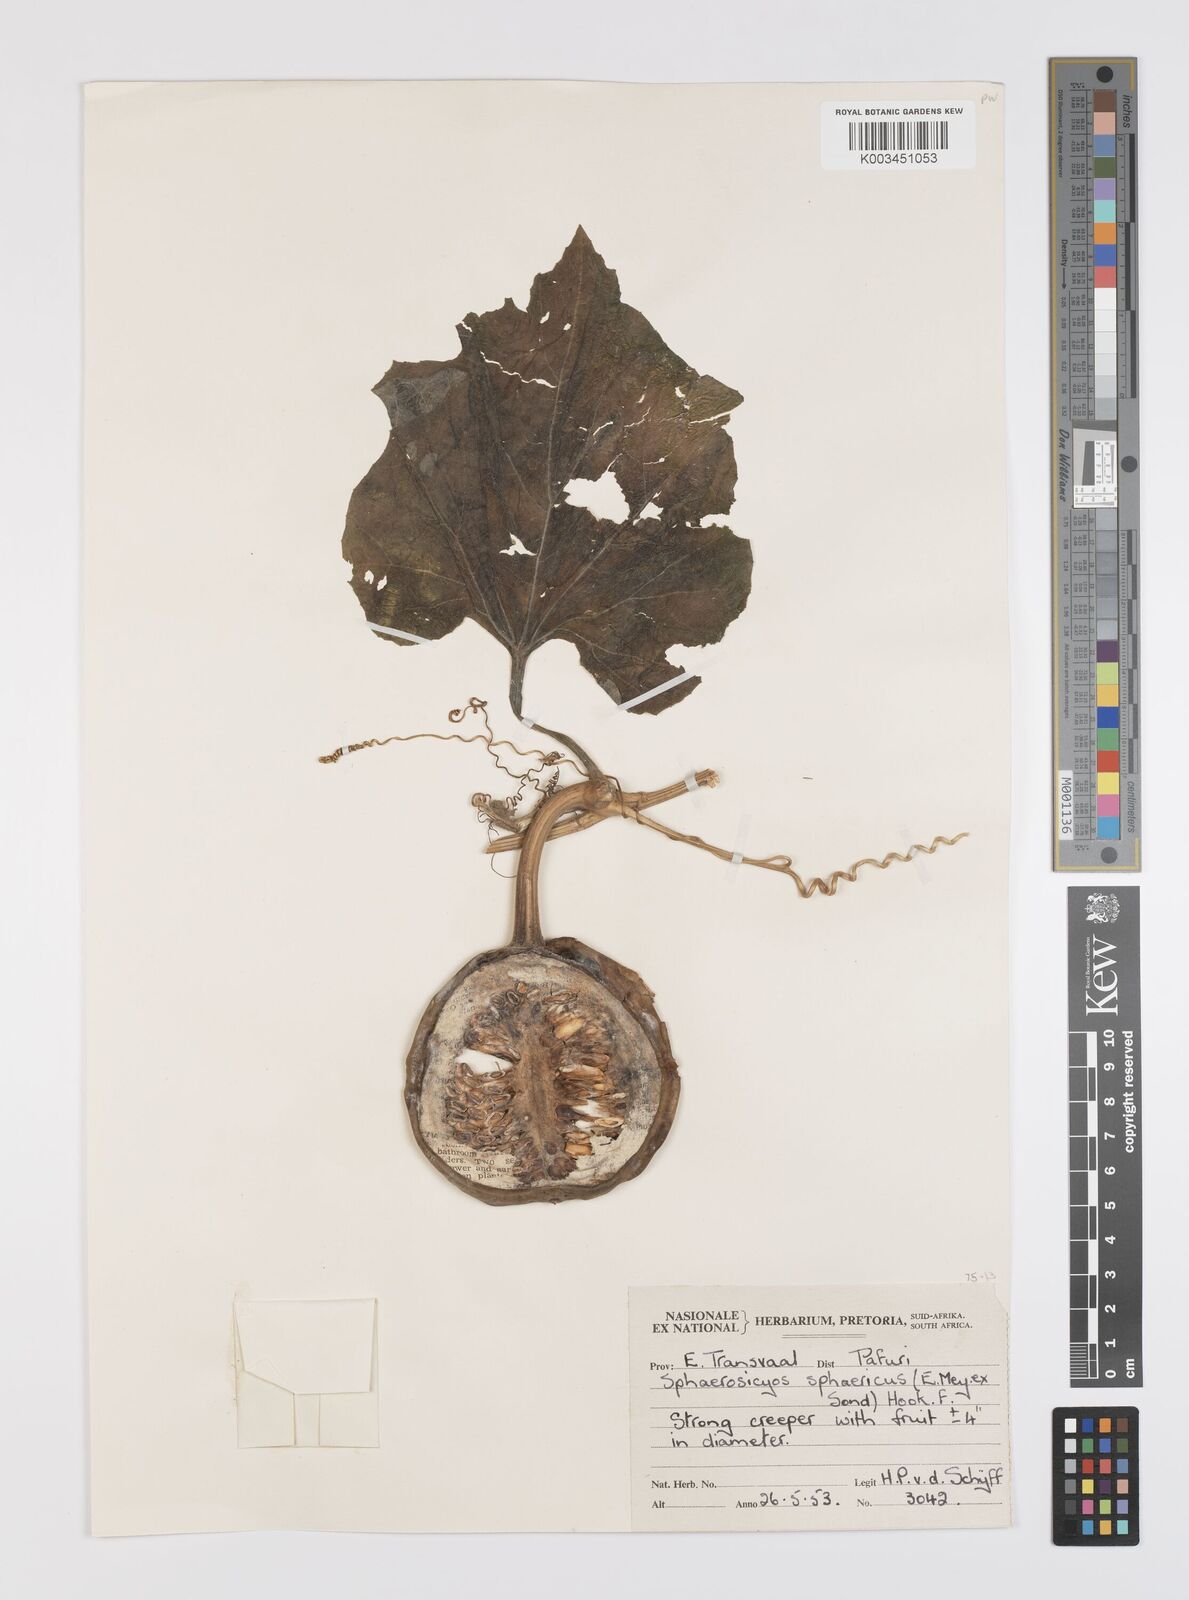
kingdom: Plantae
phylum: Tracheophyta
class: Magnoliopsida
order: Cucurbitales
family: Cucurbitaceae
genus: Lagenaria
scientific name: Lagenaria sphaerica
